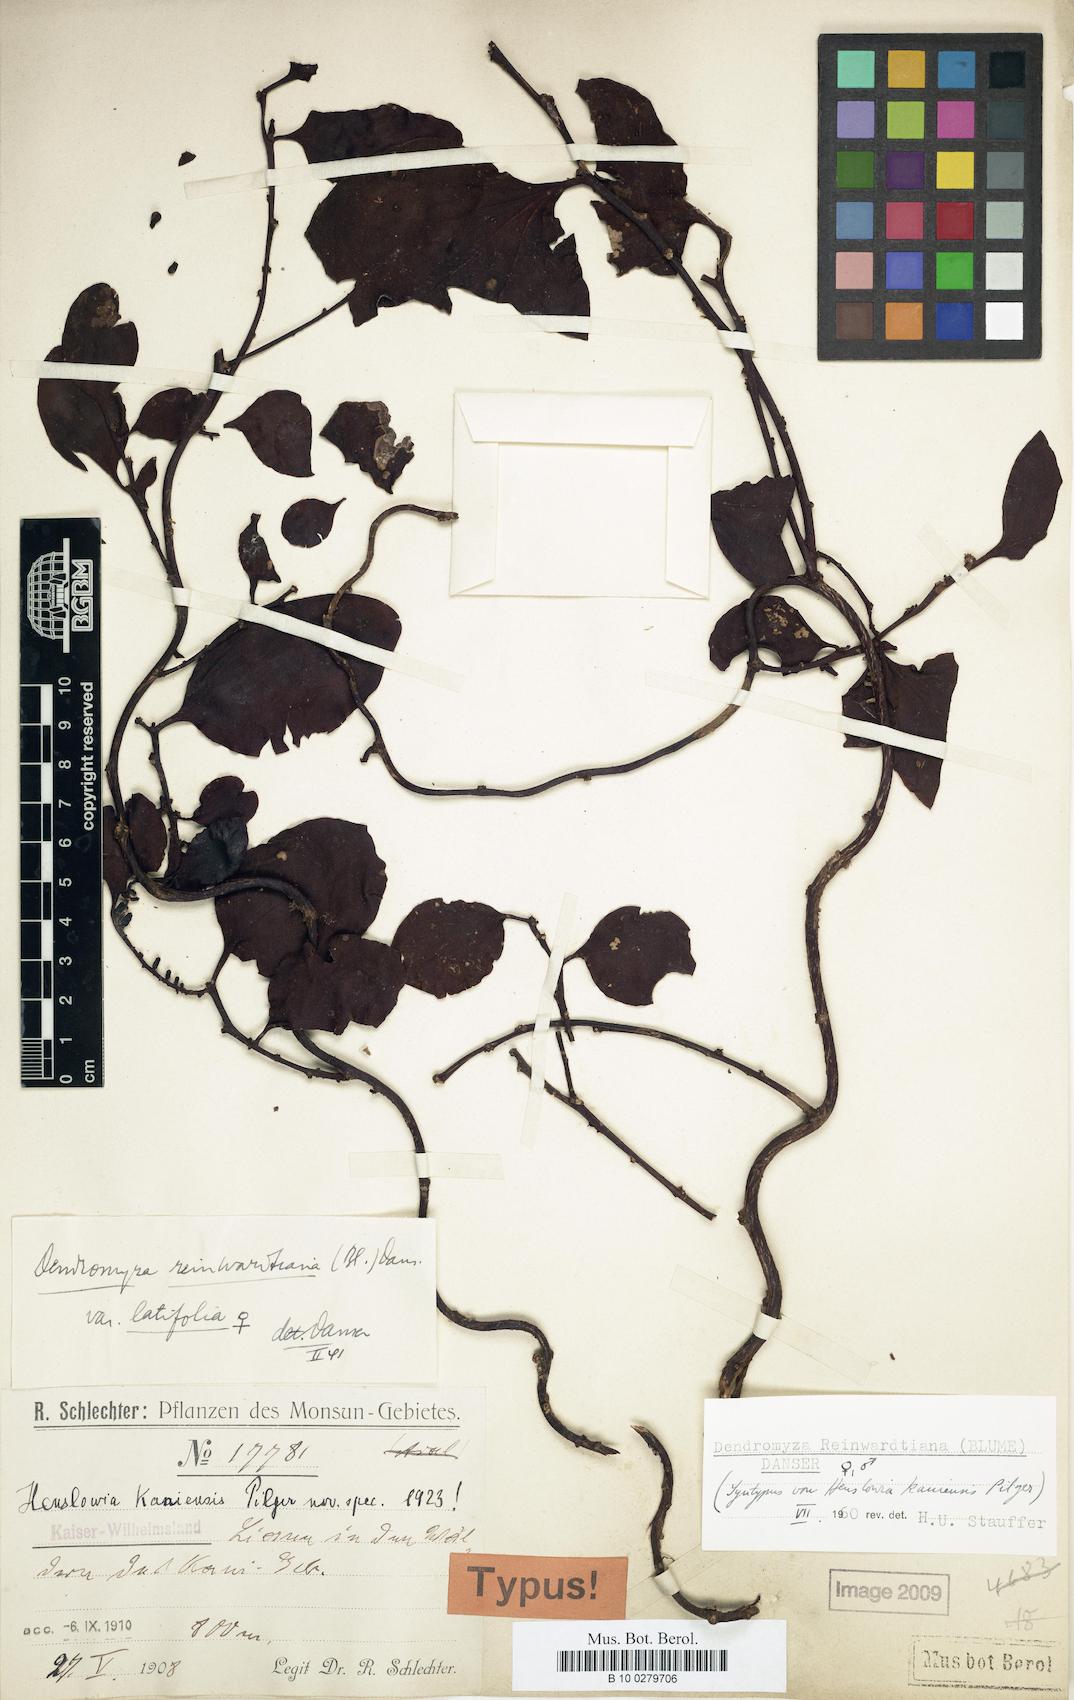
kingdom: Plantae
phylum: Tracheophyta
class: Magnoliopsida
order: Santalales
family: Amphorogynaceae
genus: Dendromyza
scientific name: Dendromyza reinwardtiana
